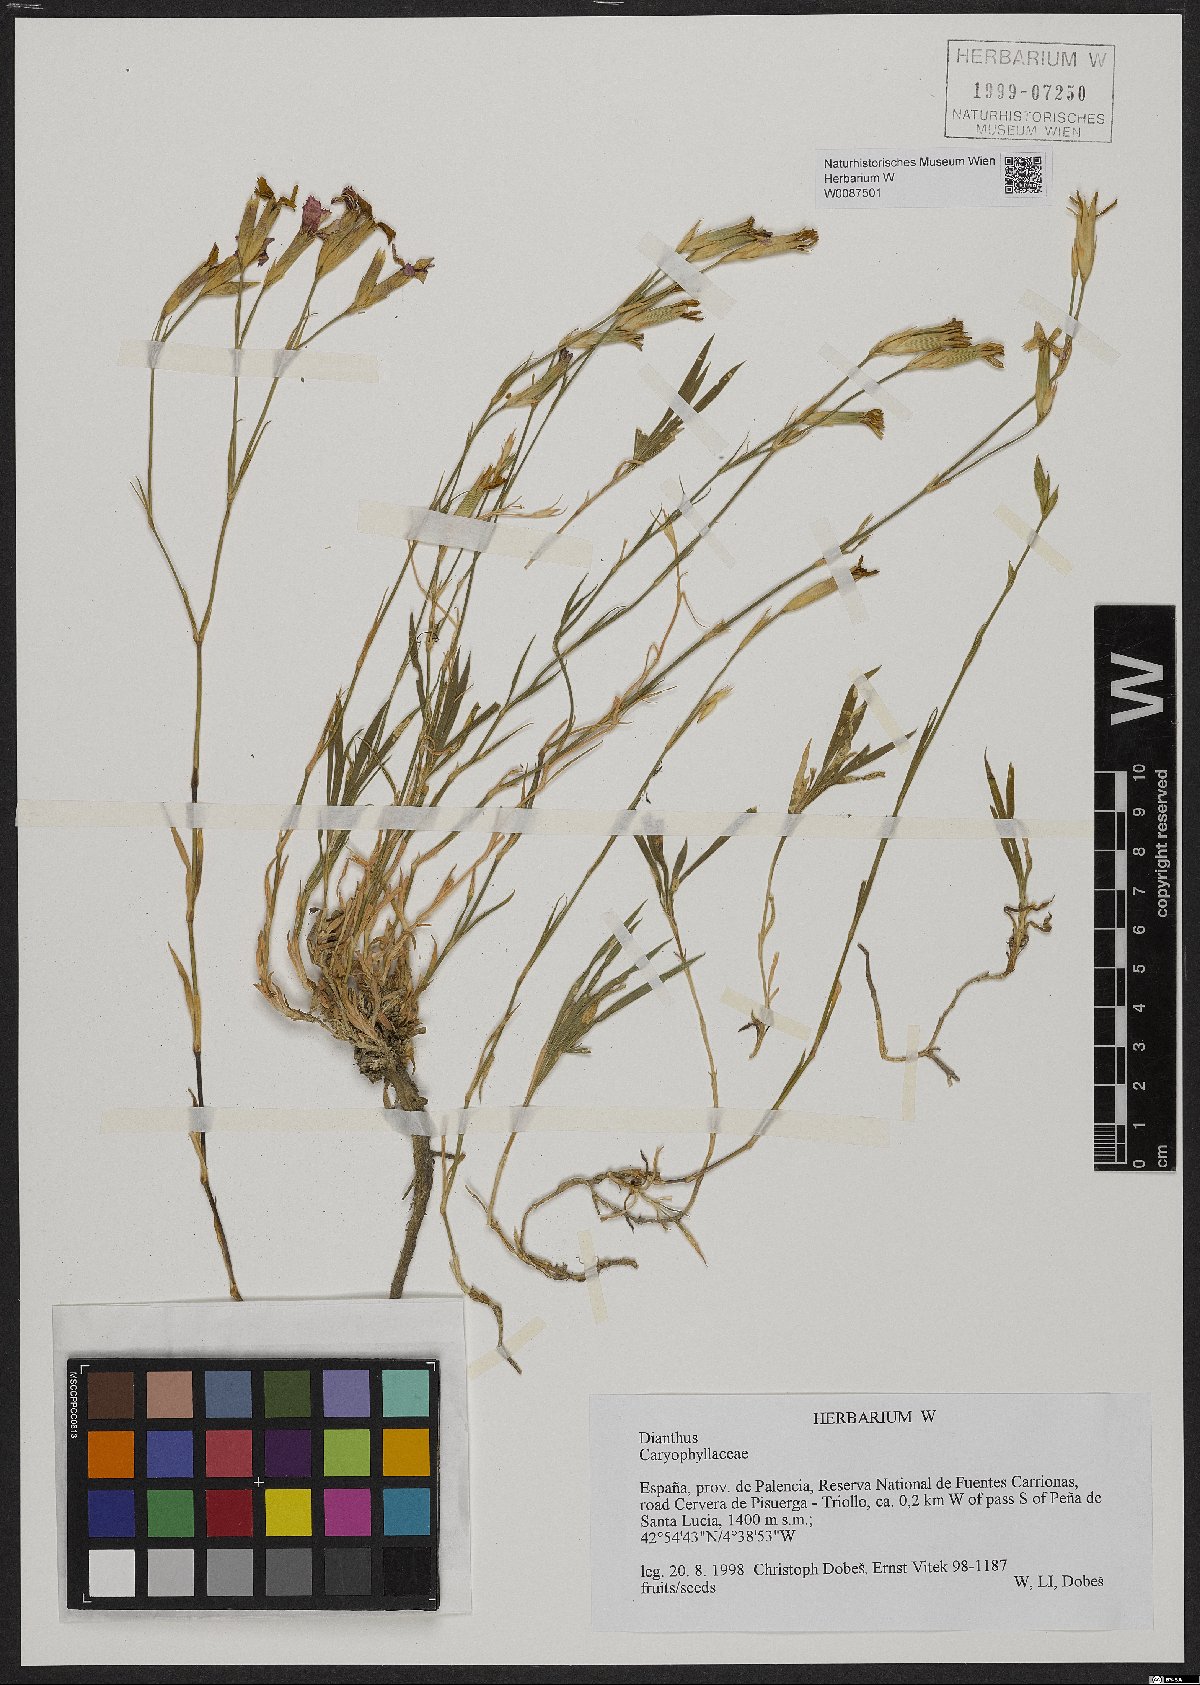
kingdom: Plantae
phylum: Tracheophyta
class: Magnoliopsida
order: Caryophyllales
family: Caryophyllaceae
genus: Dianthus
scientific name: Dianthus
